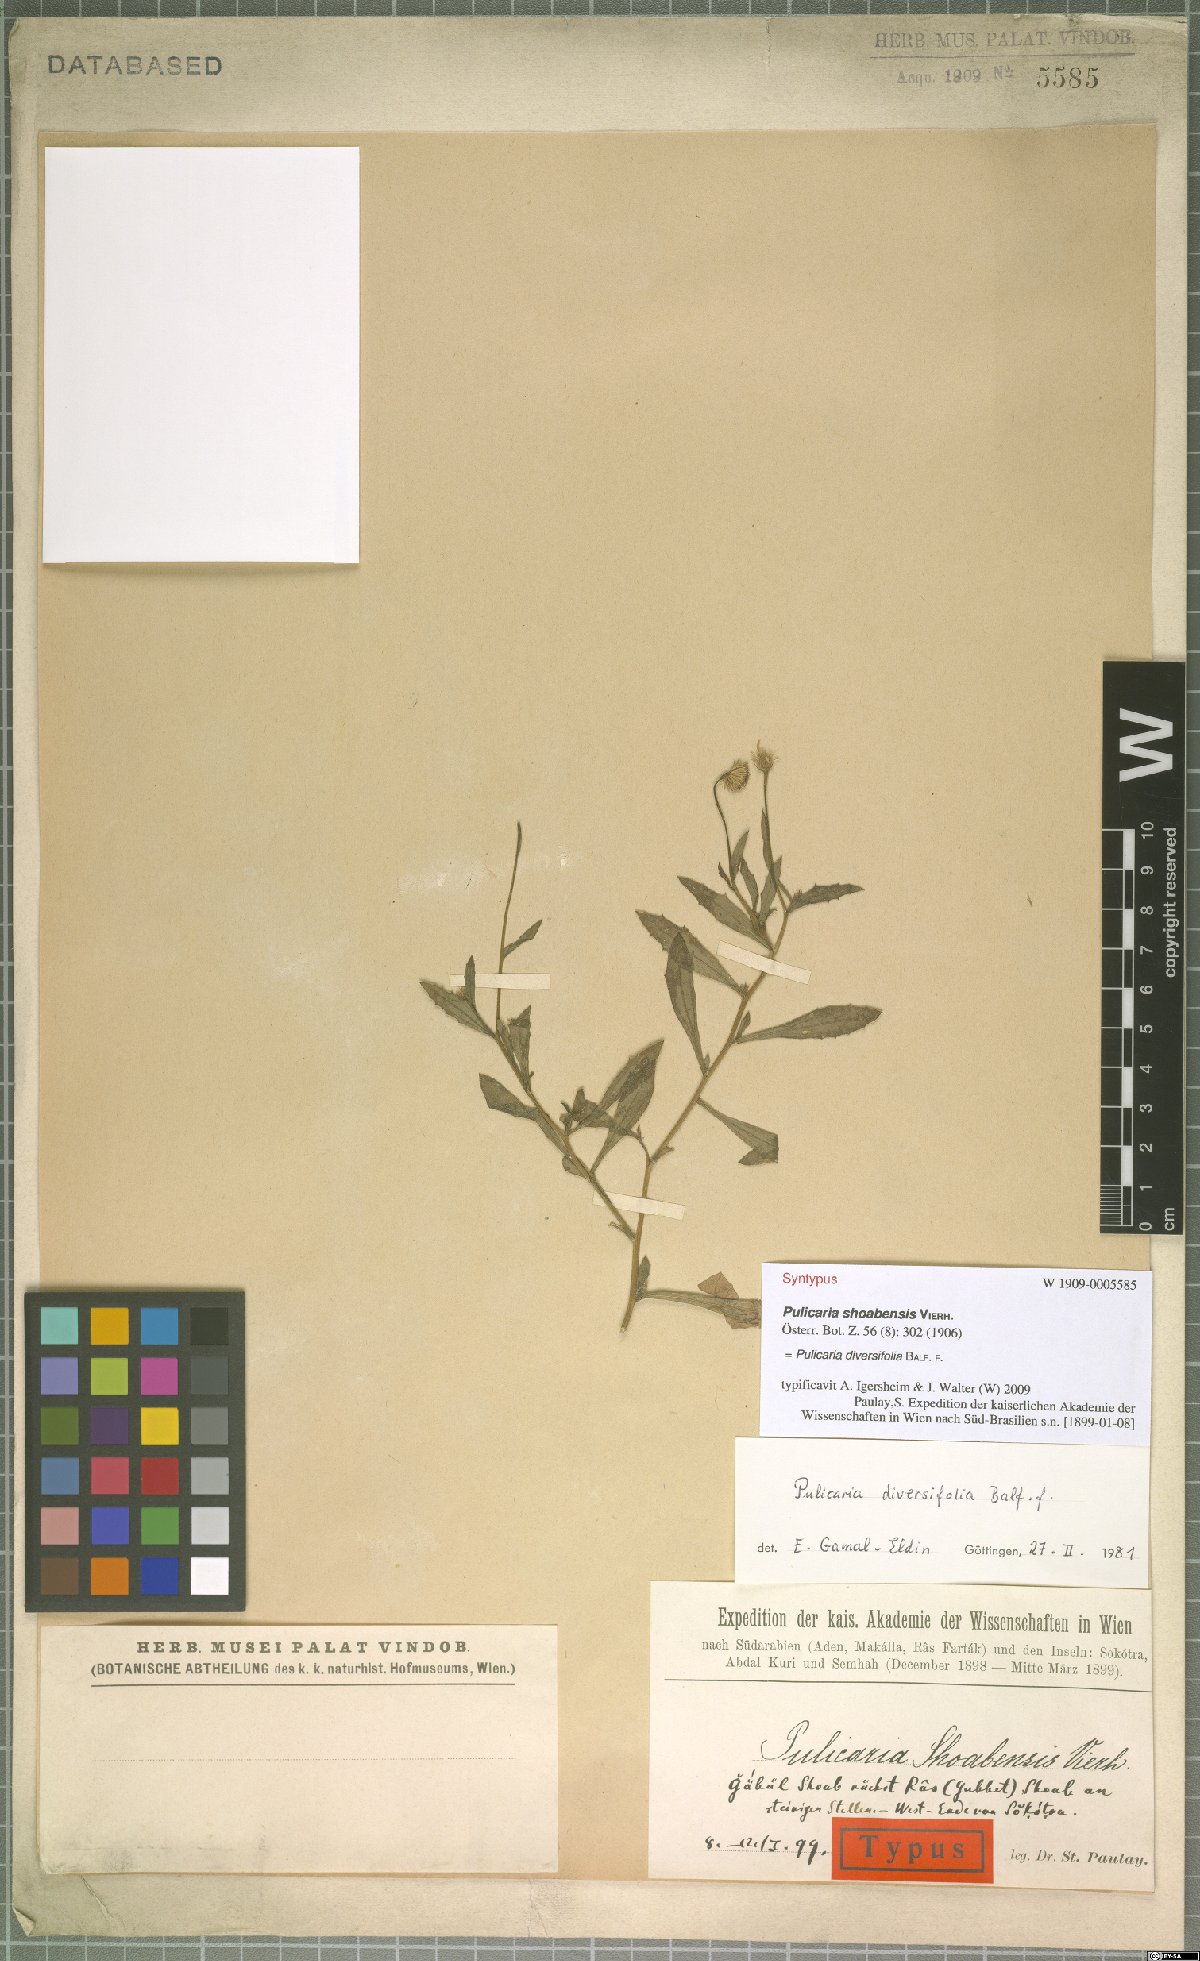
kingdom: Plantae
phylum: Tracheophyta
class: Magnoliopsida
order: Asterales
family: Asteraceae
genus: Pulicaria
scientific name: Pulicaria diversifolia
